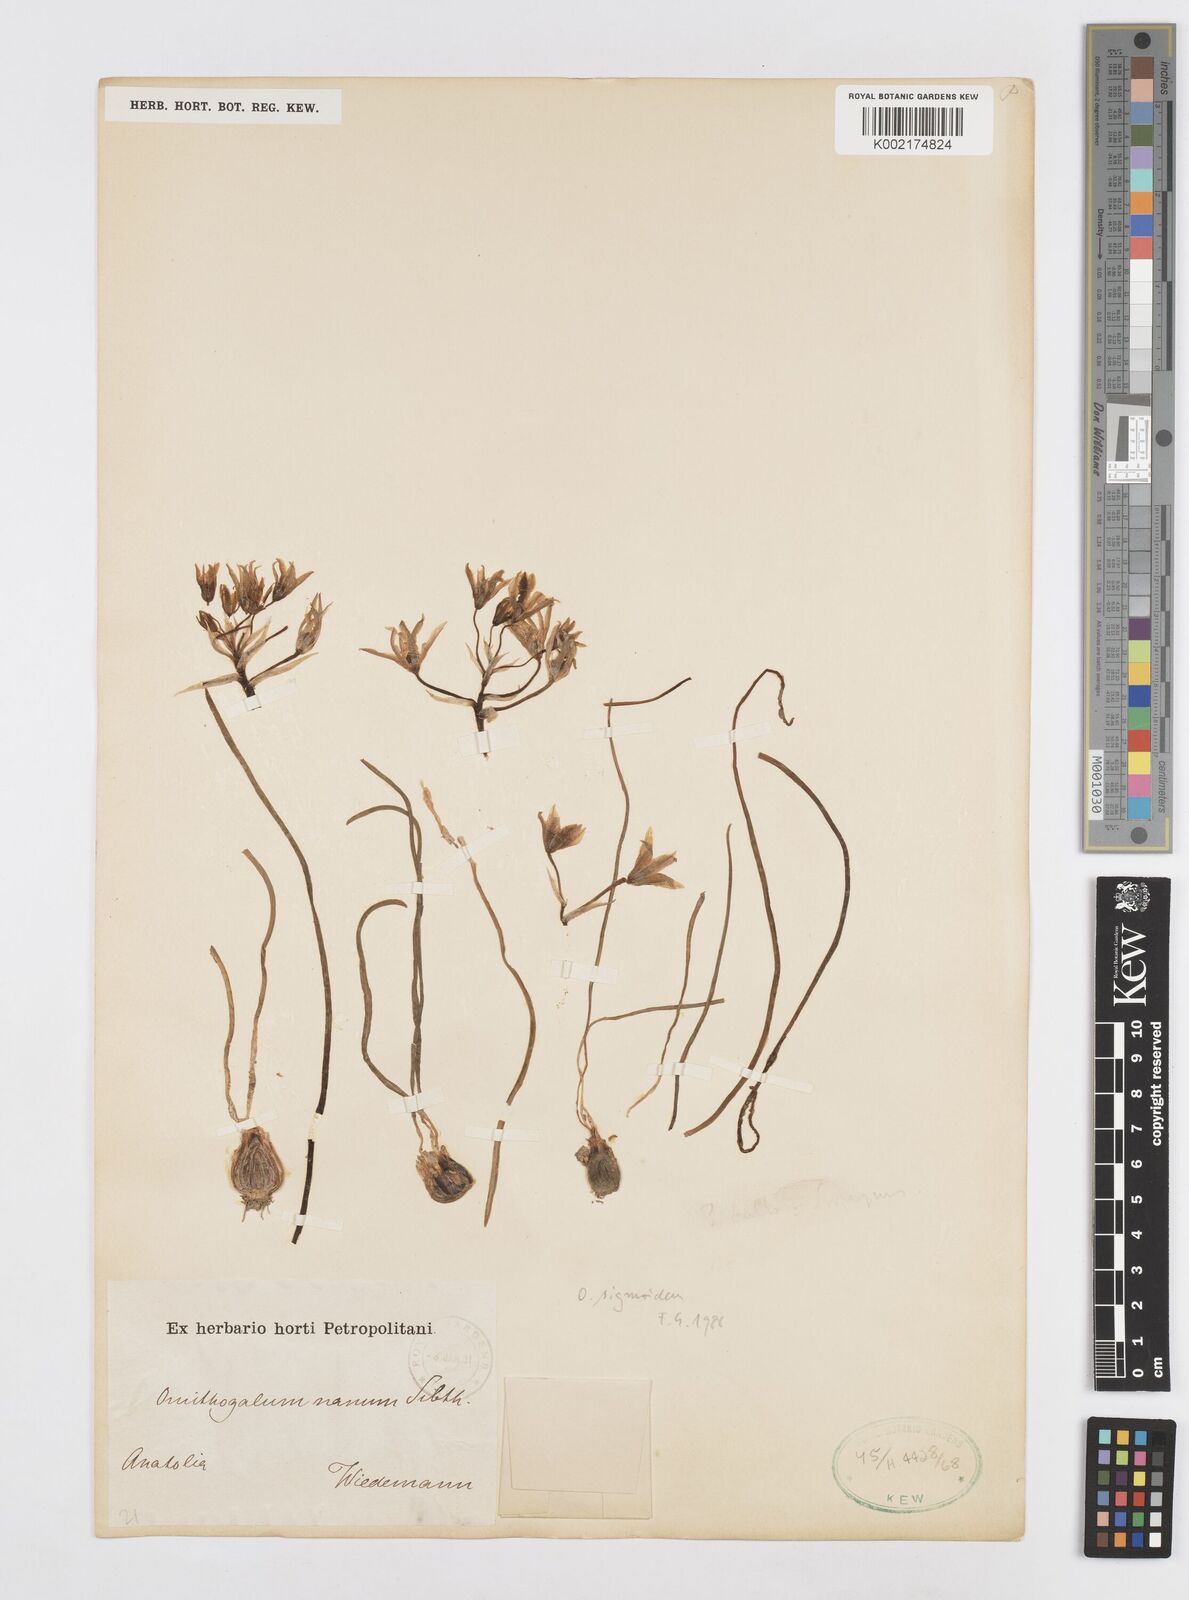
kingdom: Plantae
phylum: Tracheophyta
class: Liliopsida
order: Asparagales
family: Asparagaceae
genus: Ornithogalum
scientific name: Ornithogalum sigmoideum
